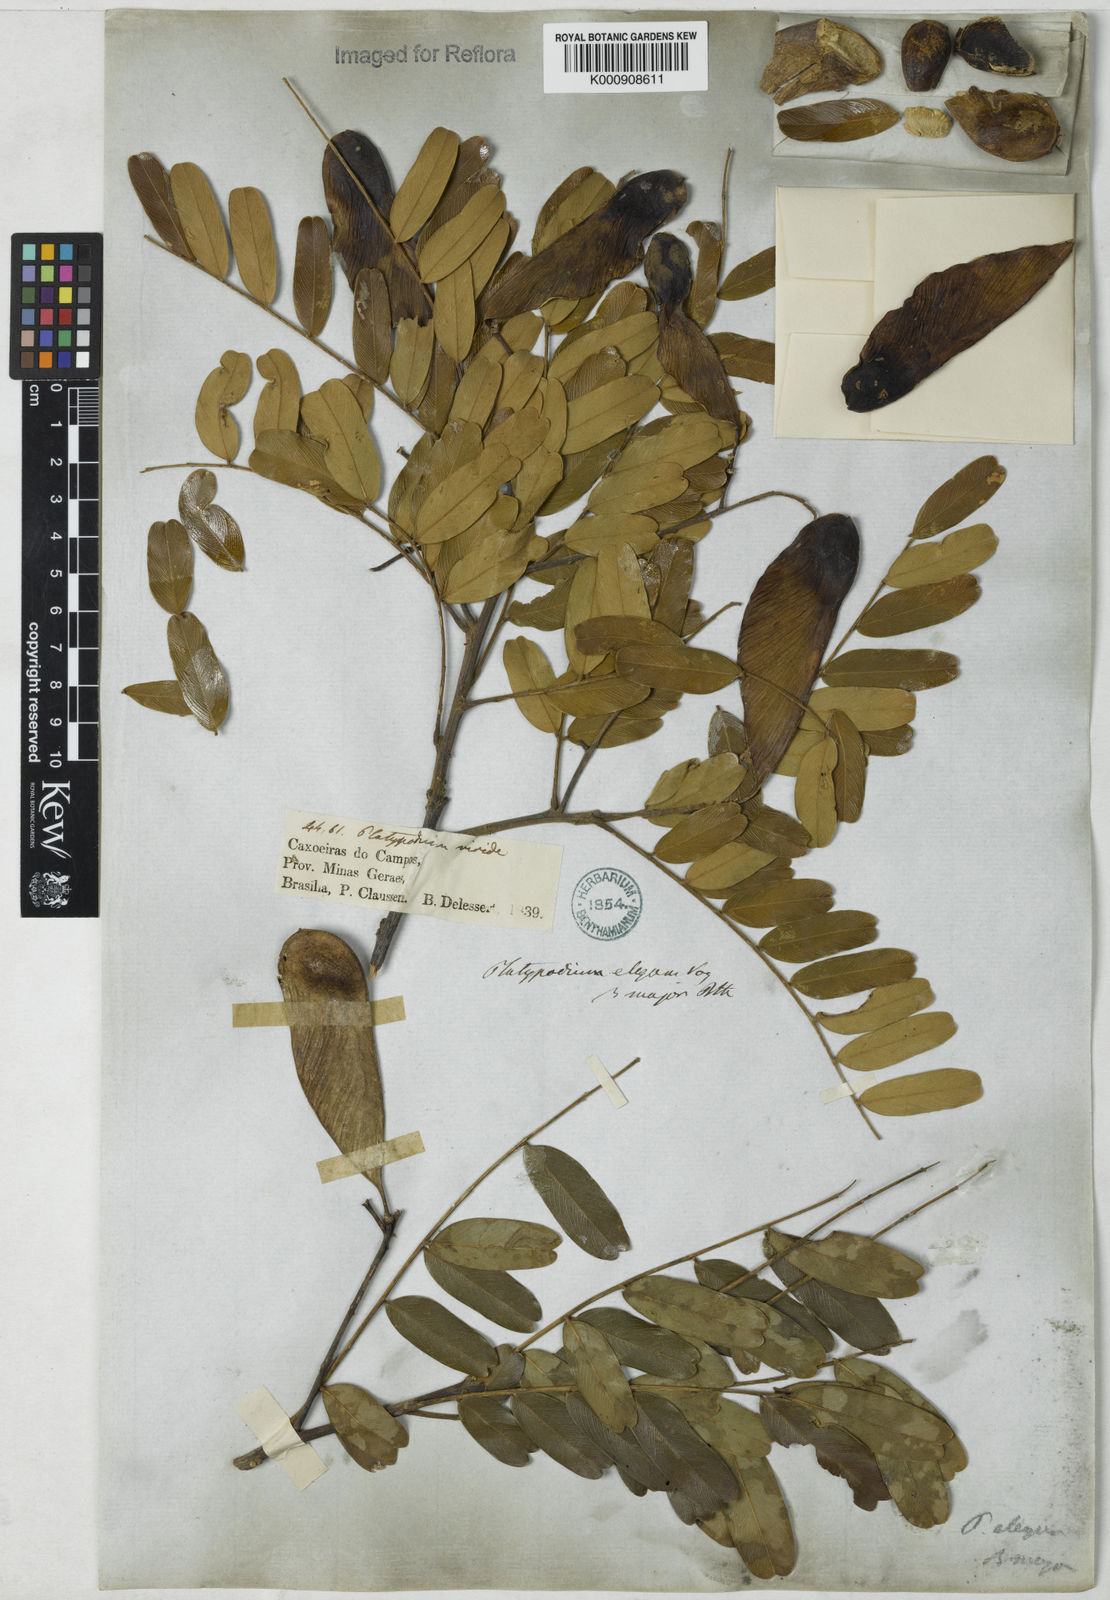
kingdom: Plantae
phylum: Tracheophyta
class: Magnoliopsida
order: Fabales
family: Fabaceae
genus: Platypodium
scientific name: Platypodium viride
